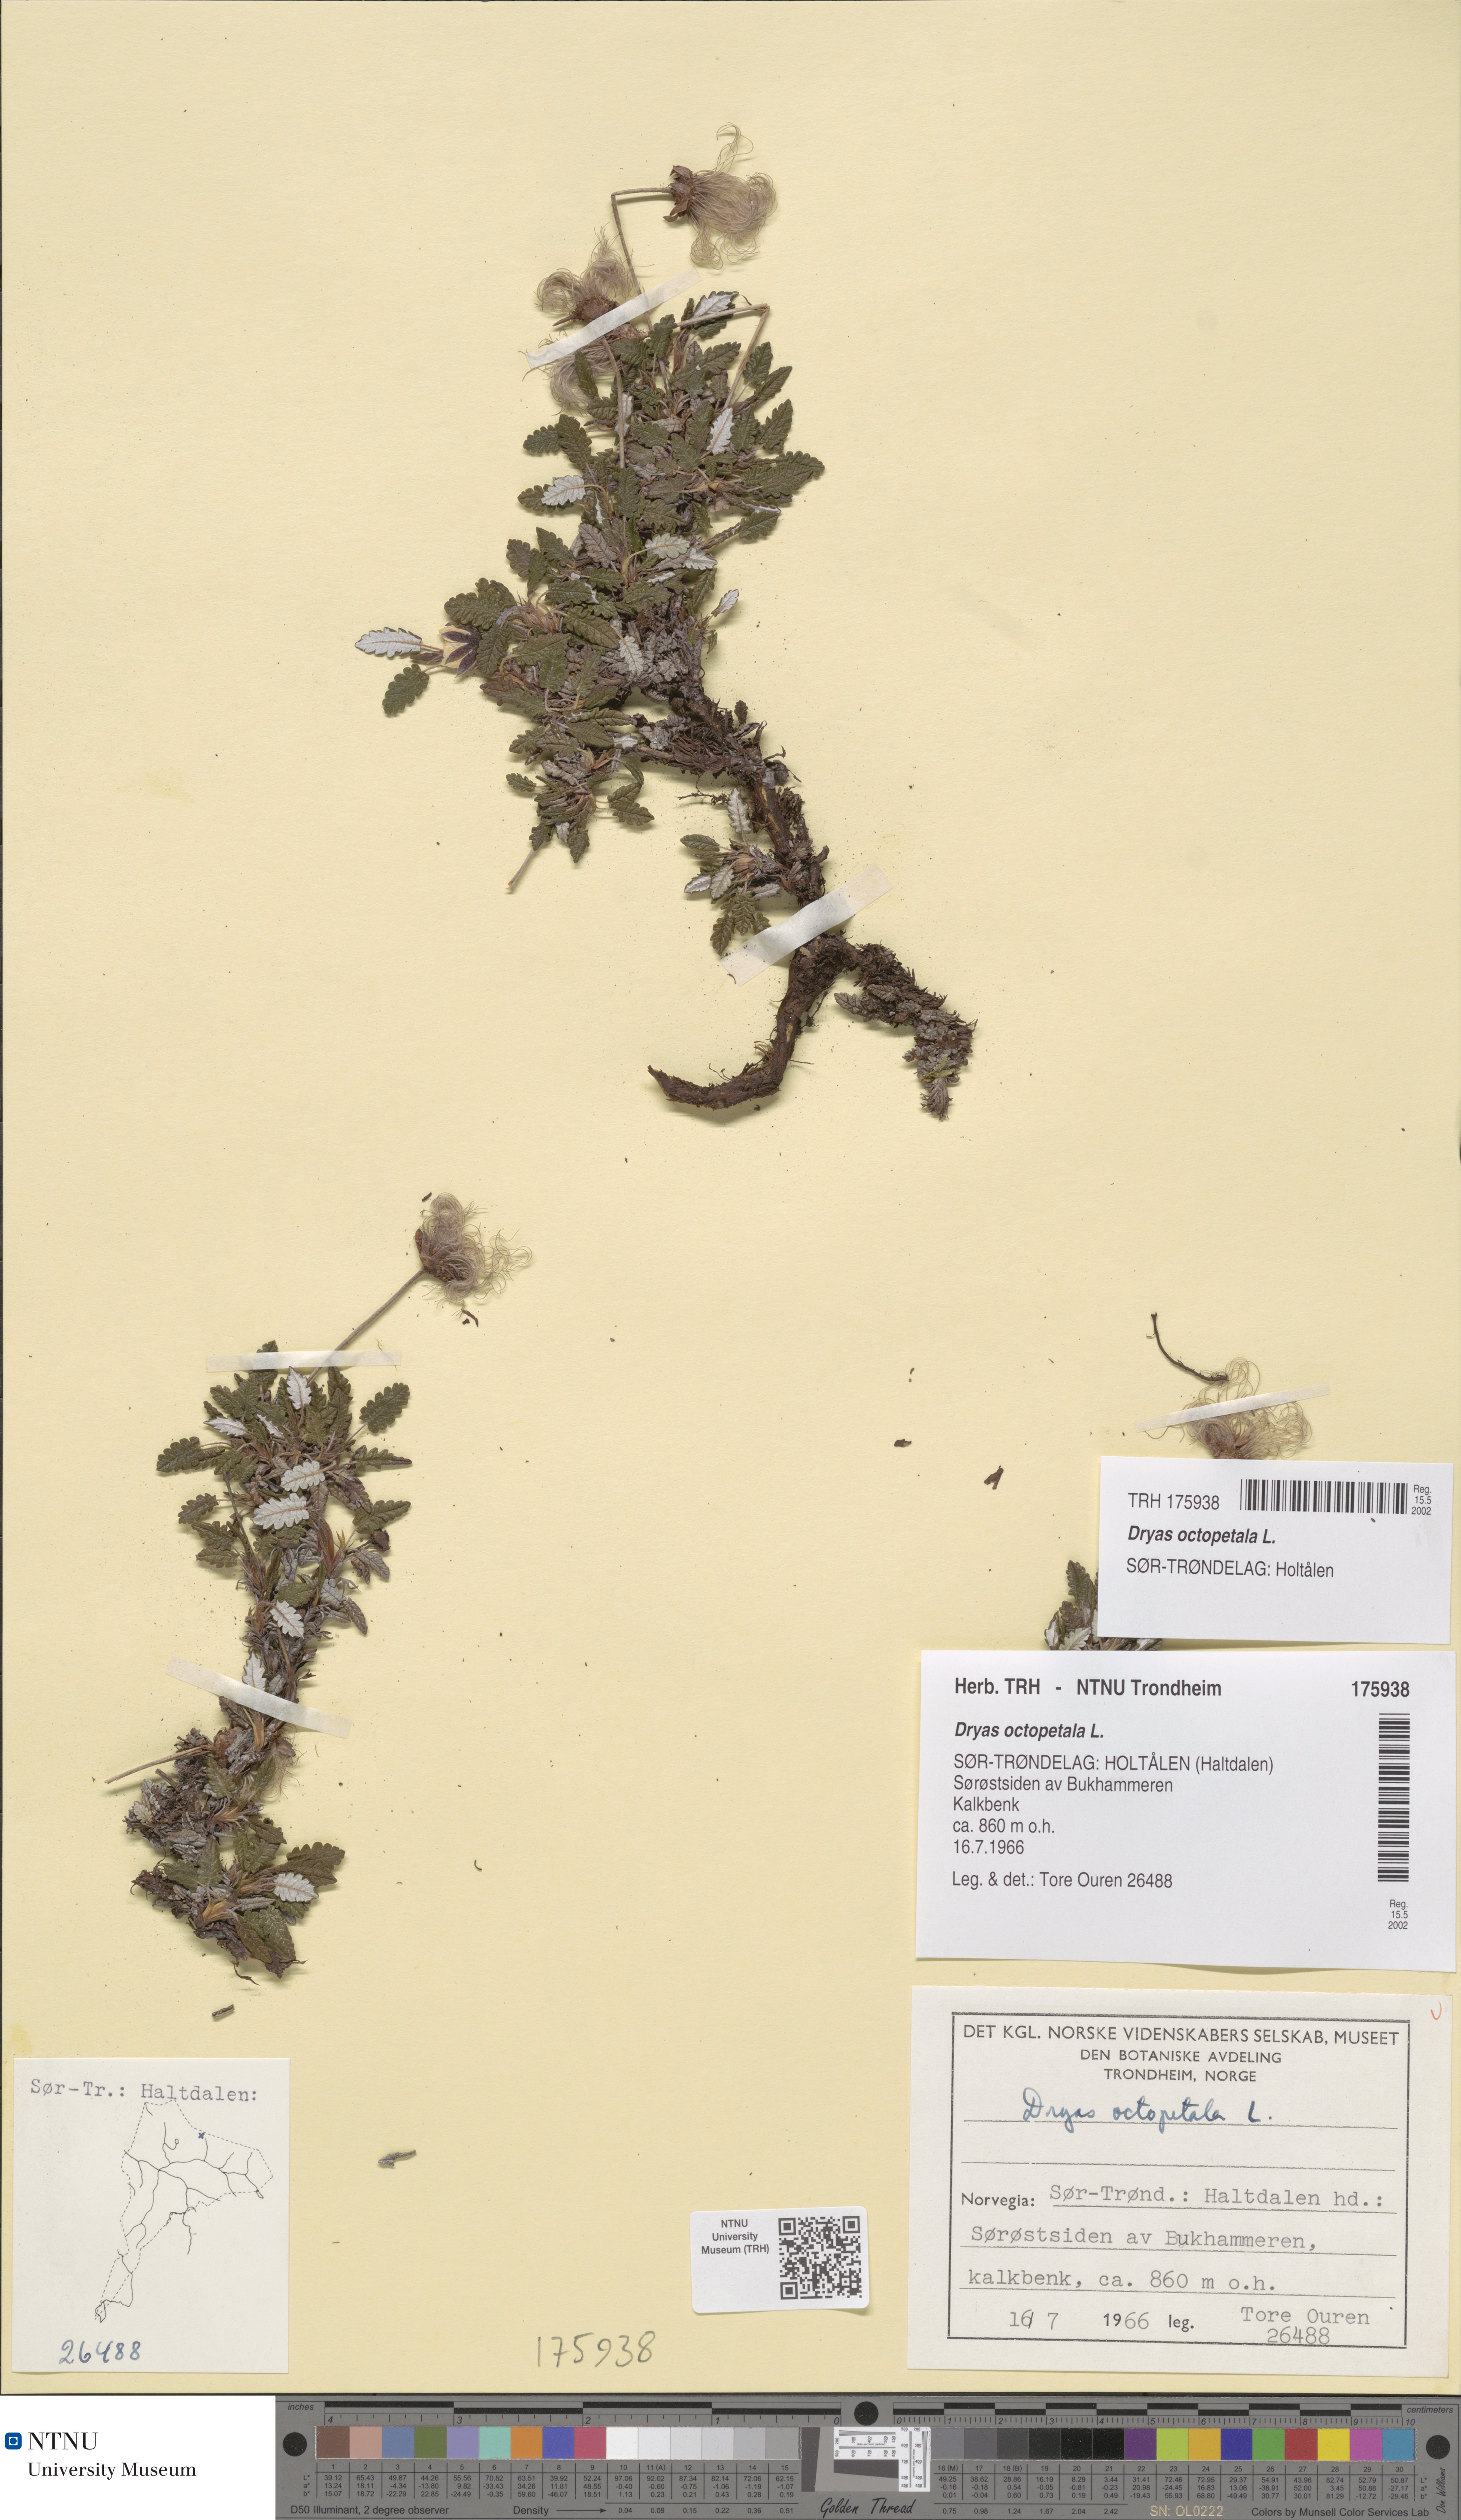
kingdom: Plantae
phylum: Tracheophyta
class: Magnoliopsida
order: Rosales
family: Rosaceae
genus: Dryas
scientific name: Dryas octopetala
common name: Eight-petal mountain-avens
